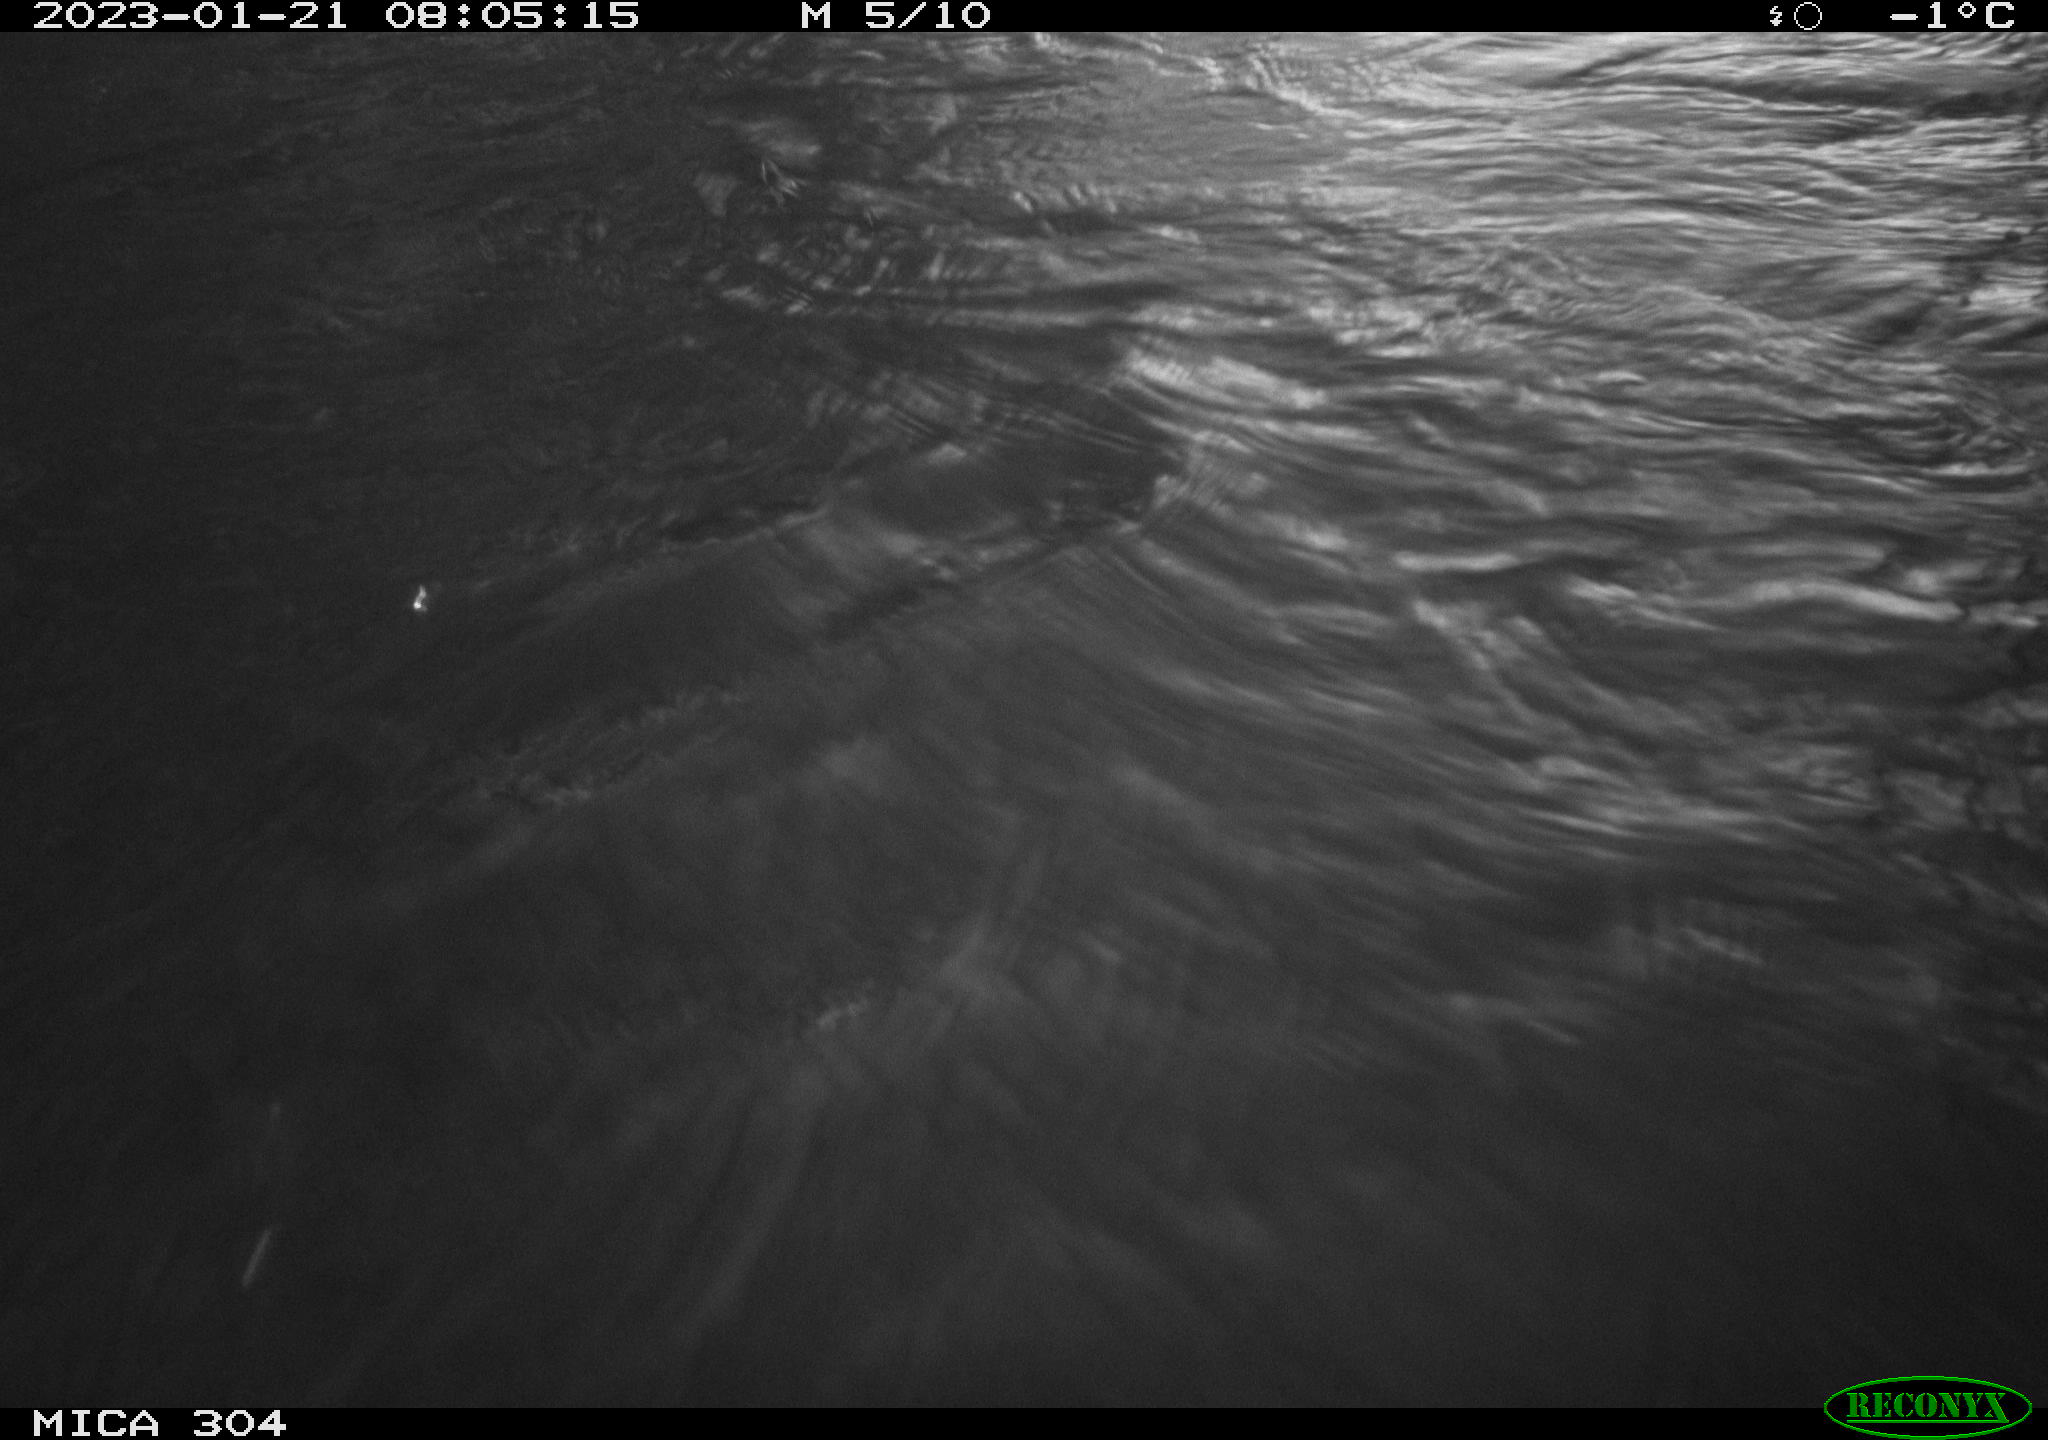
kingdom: Animalia
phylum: Chordata
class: Mammalia
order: Rodentia
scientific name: Rodentia
